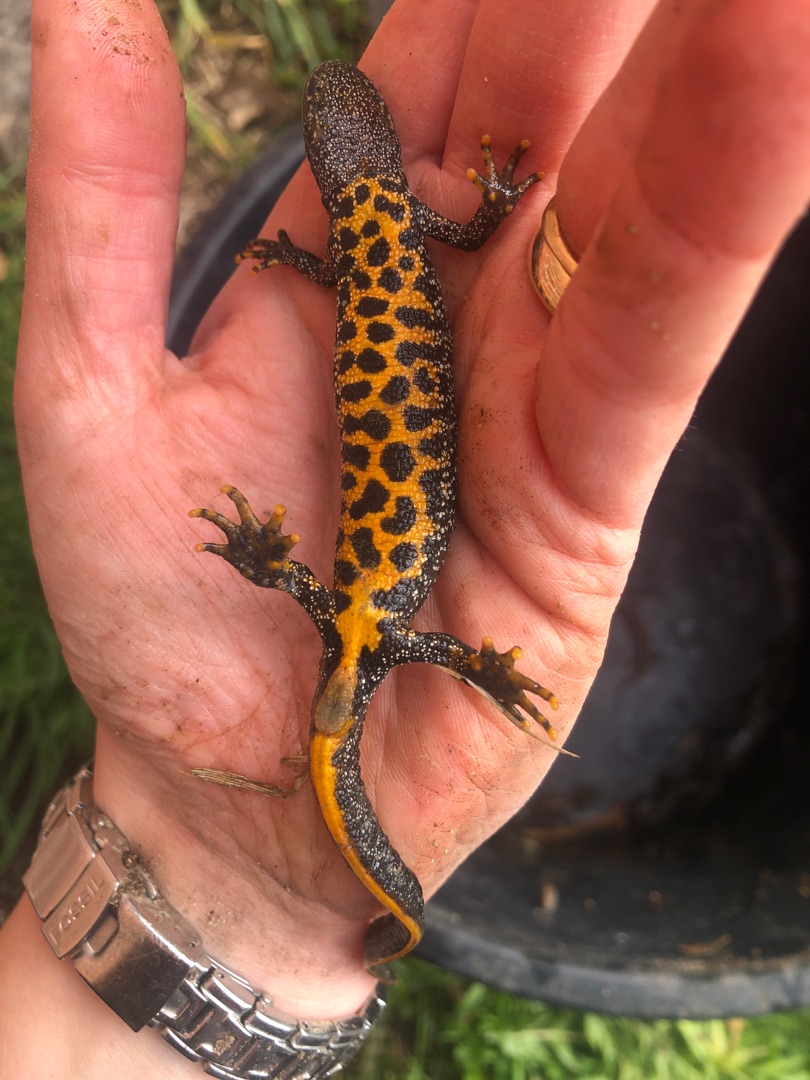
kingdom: Animalia
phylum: Chordata
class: Amphibia
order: Caudata
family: Salamandridae
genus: Triturus
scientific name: Triturus cristatus
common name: Stor vandsalamander
